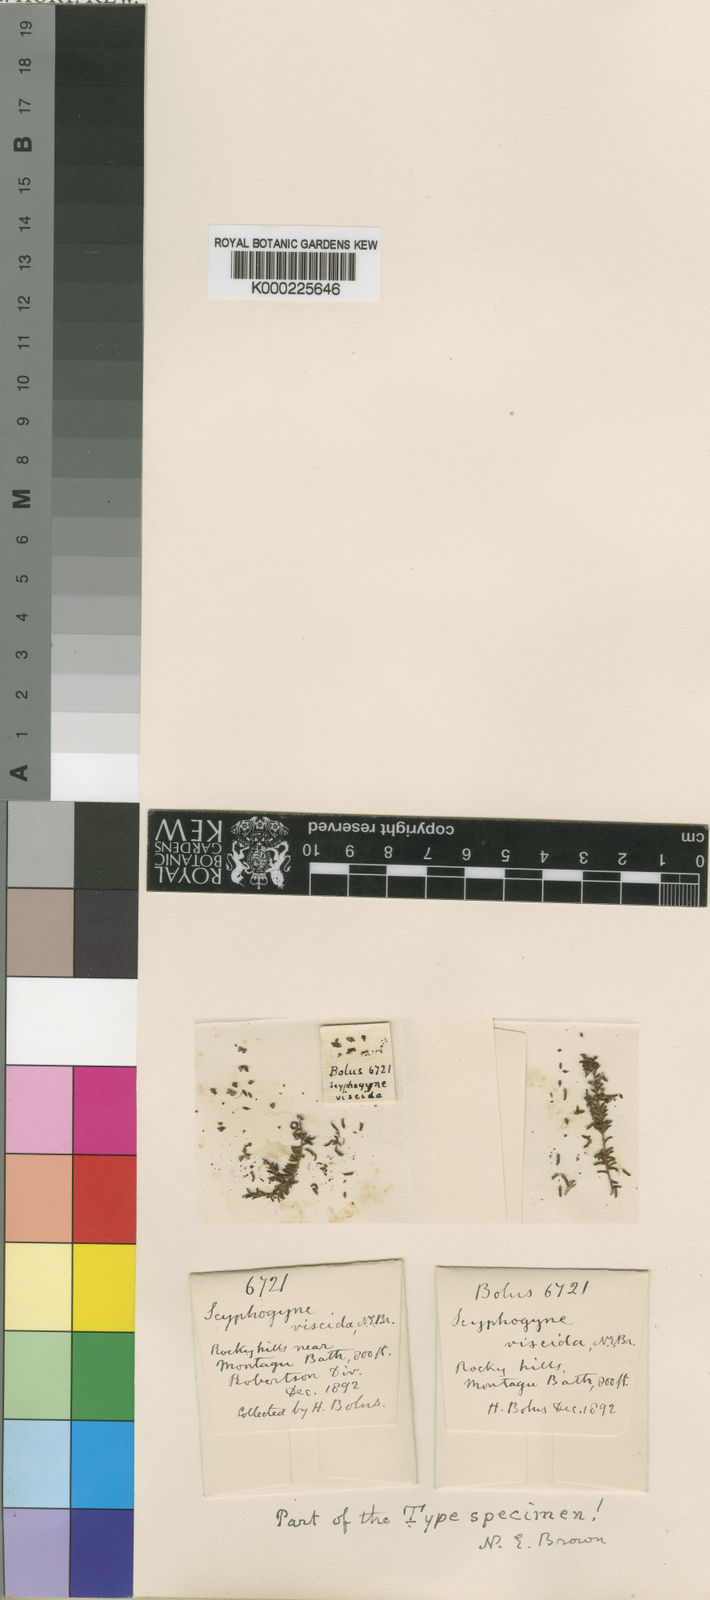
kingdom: Plantae
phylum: Tracheophyta
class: Magnoliopsida
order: Ericales
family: Ericaceae
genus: Erica
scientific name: Erica phacelanthera
